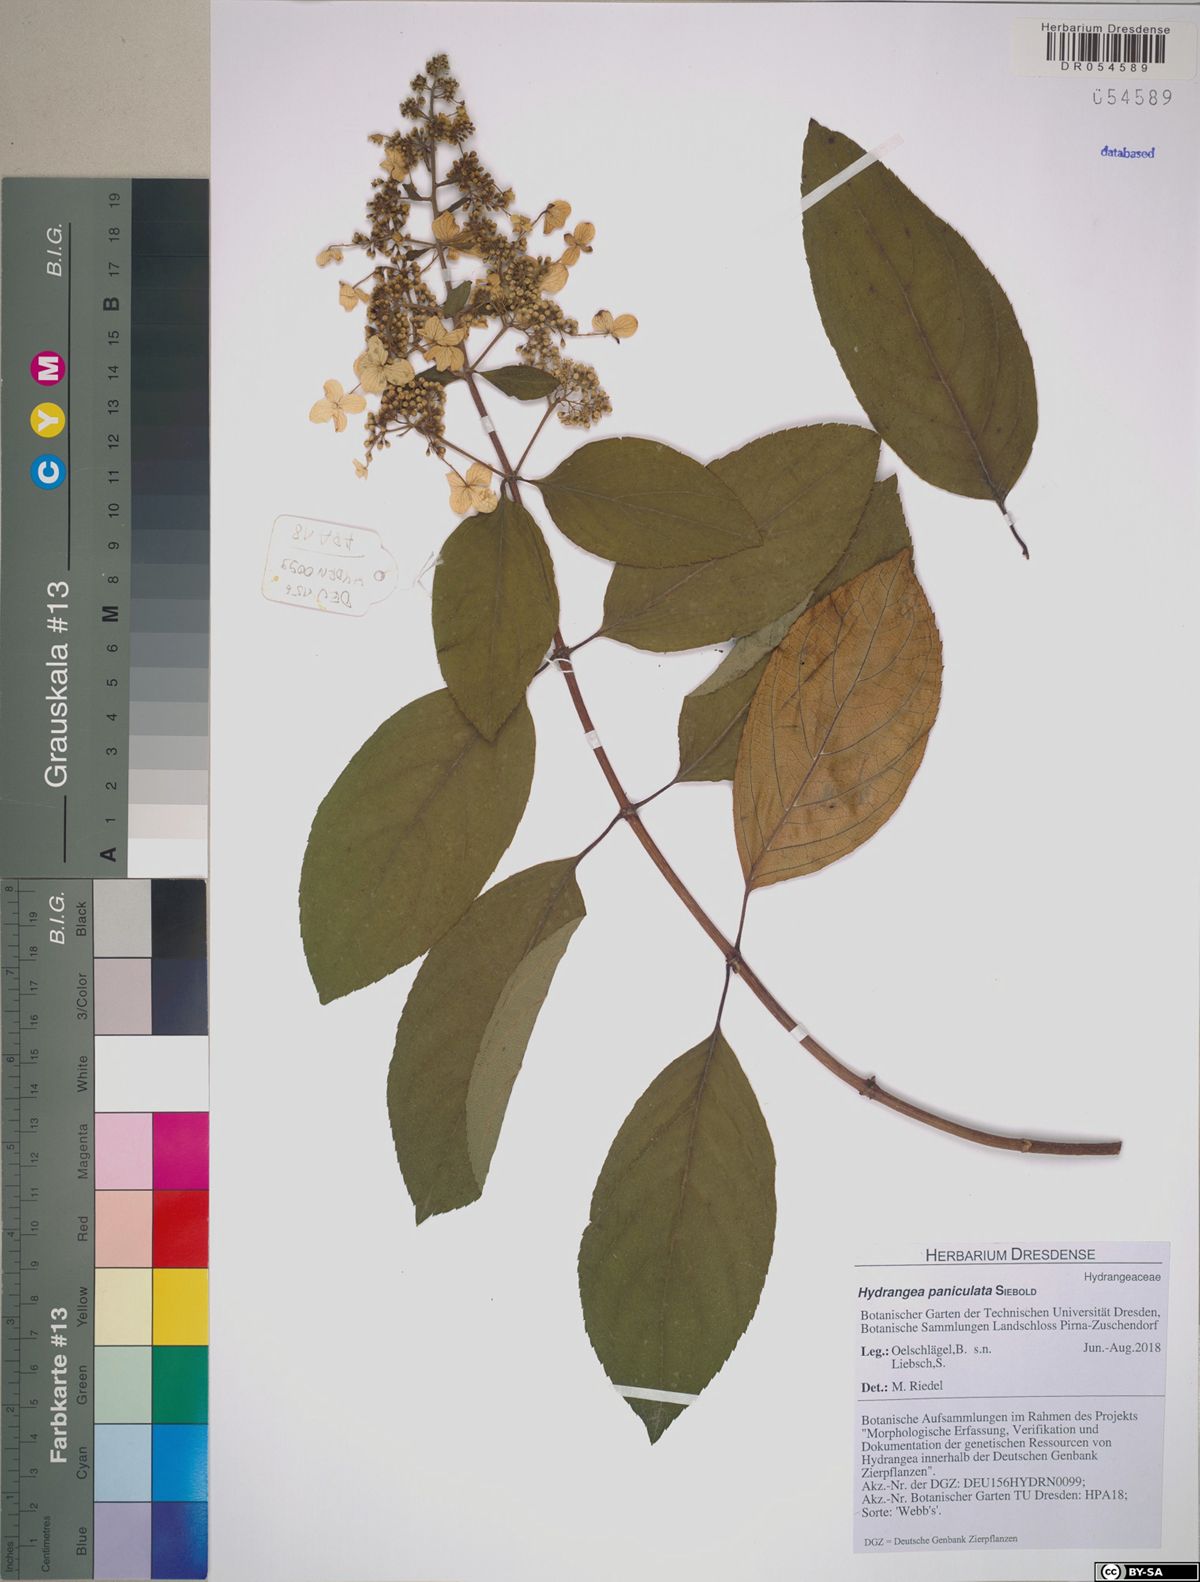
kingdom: Plantae
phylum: Tracheophyta
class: Magnoliopsida
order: Cornales
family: Hydrangeaceae
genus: Hydrangea
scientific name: Hydrangea paniculata
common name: Panicled hydrangea
